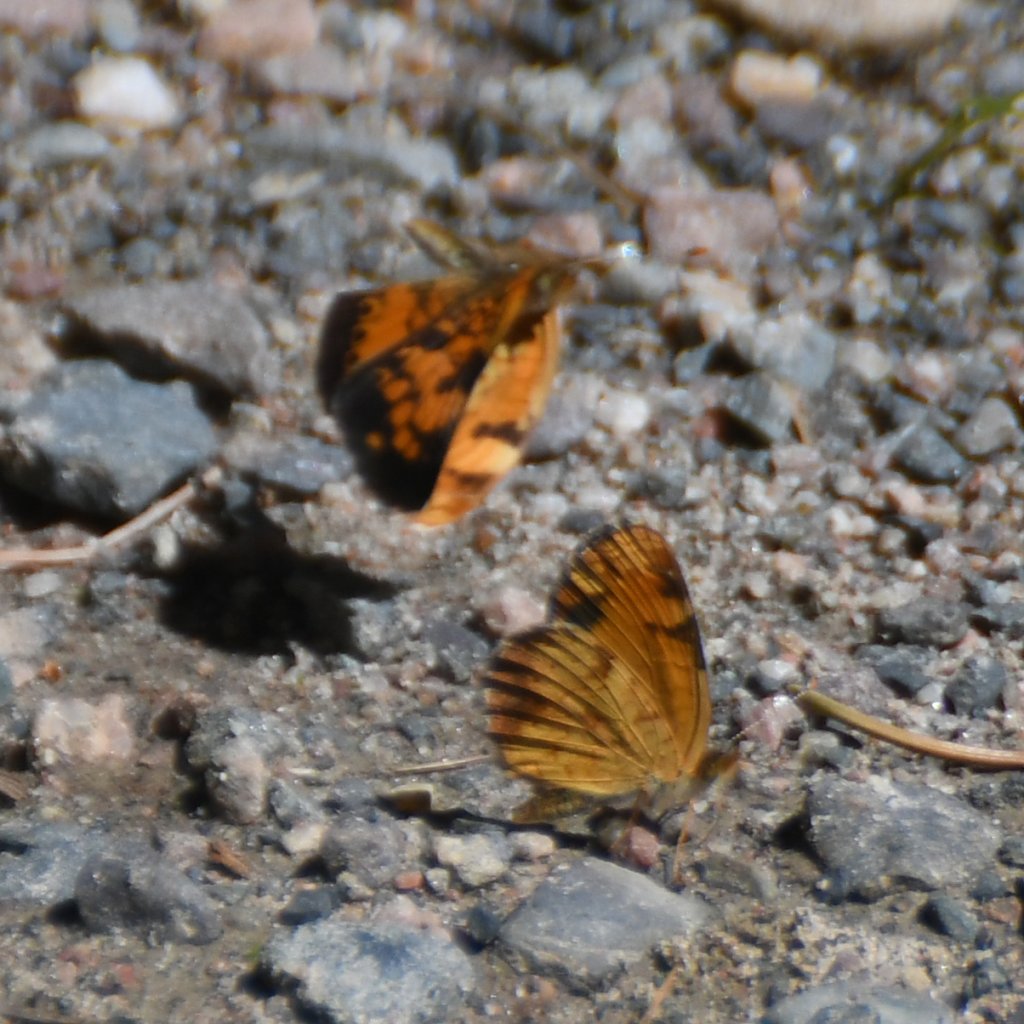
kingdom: Animalia
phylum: Arthropoda
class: Insecta
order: Lepidoptera
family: Nymphalidae
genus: Phyciodes
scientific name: Phyciodes tharos
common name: Northern Crescent
